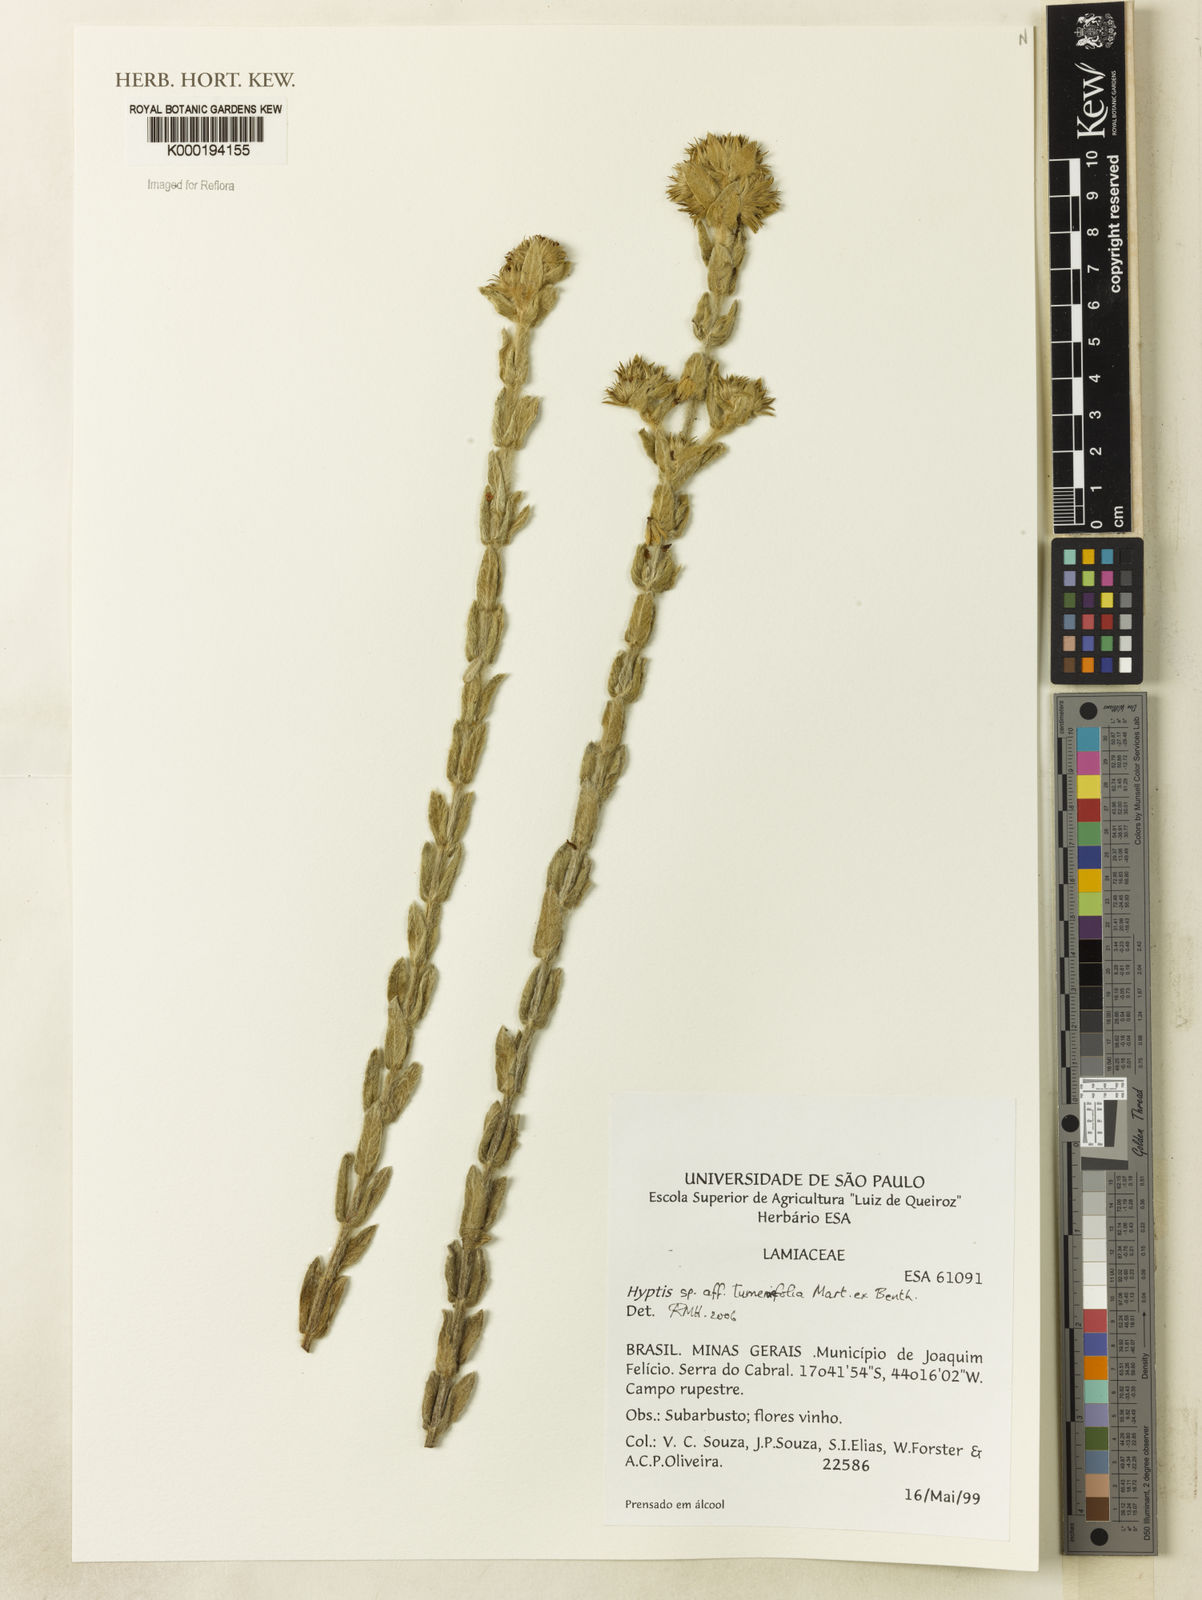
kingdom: Plantae
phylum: Tracheophyta
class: Magnoliopsida
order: Lamiales
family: Lamiaceae
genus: Hyptis
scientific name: Hyptis
